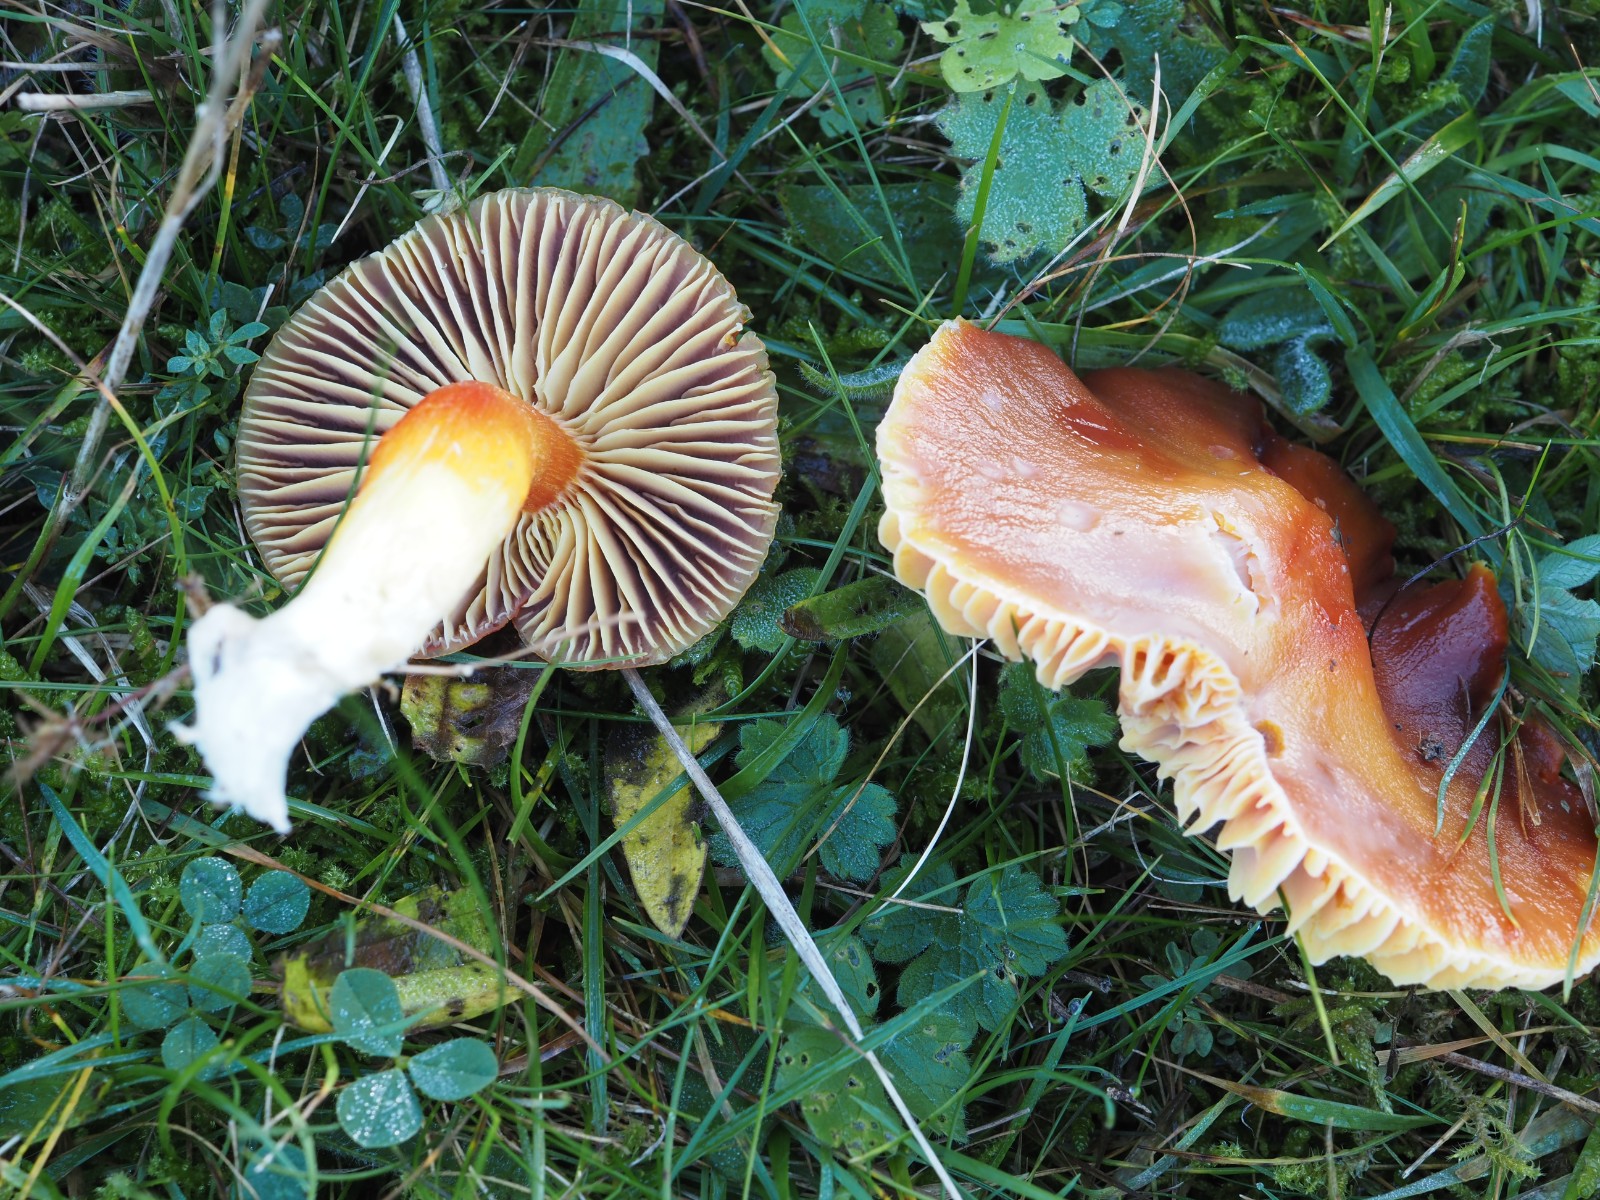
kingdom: Fungi
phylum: Basidiomycota
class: Agaricomycetes
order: Agaricales
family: Hygrophoraceae
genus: Hygrocybe
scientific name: Hygrocybe punicea
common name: skarlagen-vokshat
